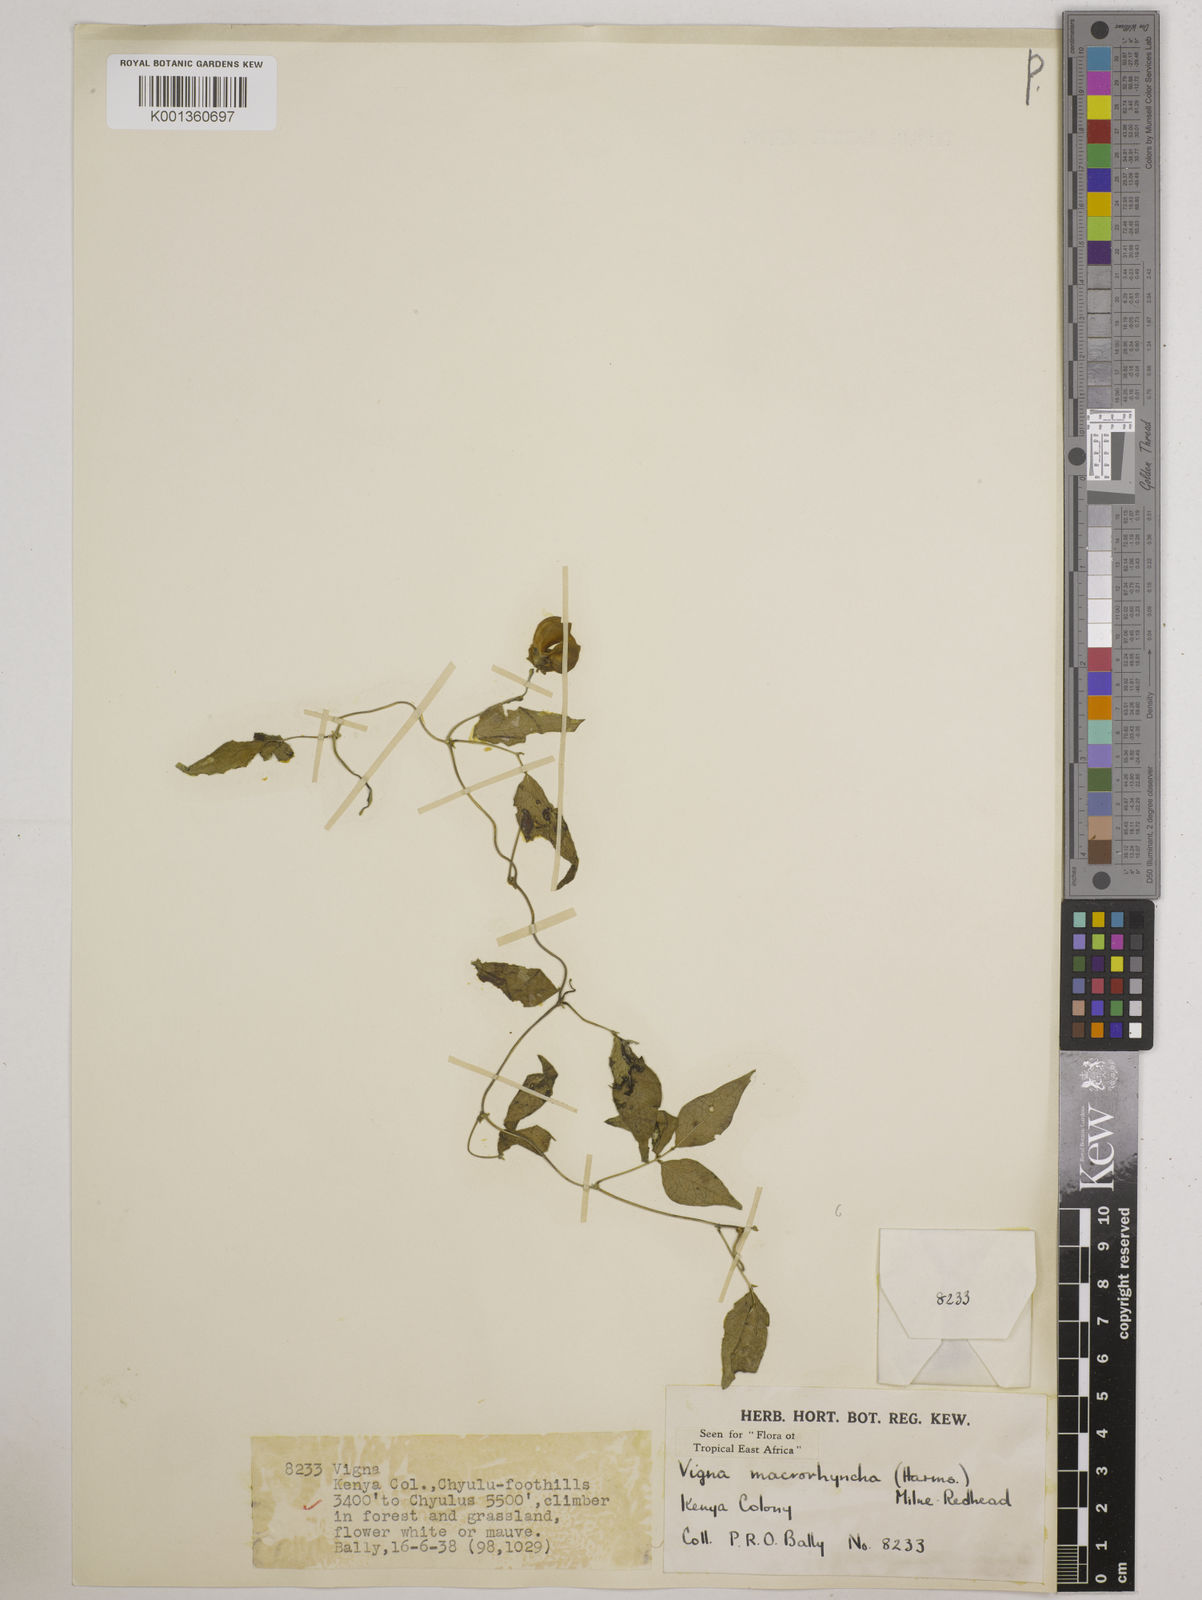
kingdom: Plantae
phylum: Tracheophyta
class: Magnoliopsida
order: Fabales
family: Fabaceae
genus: Wajira
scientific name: Wajira grahamiana
